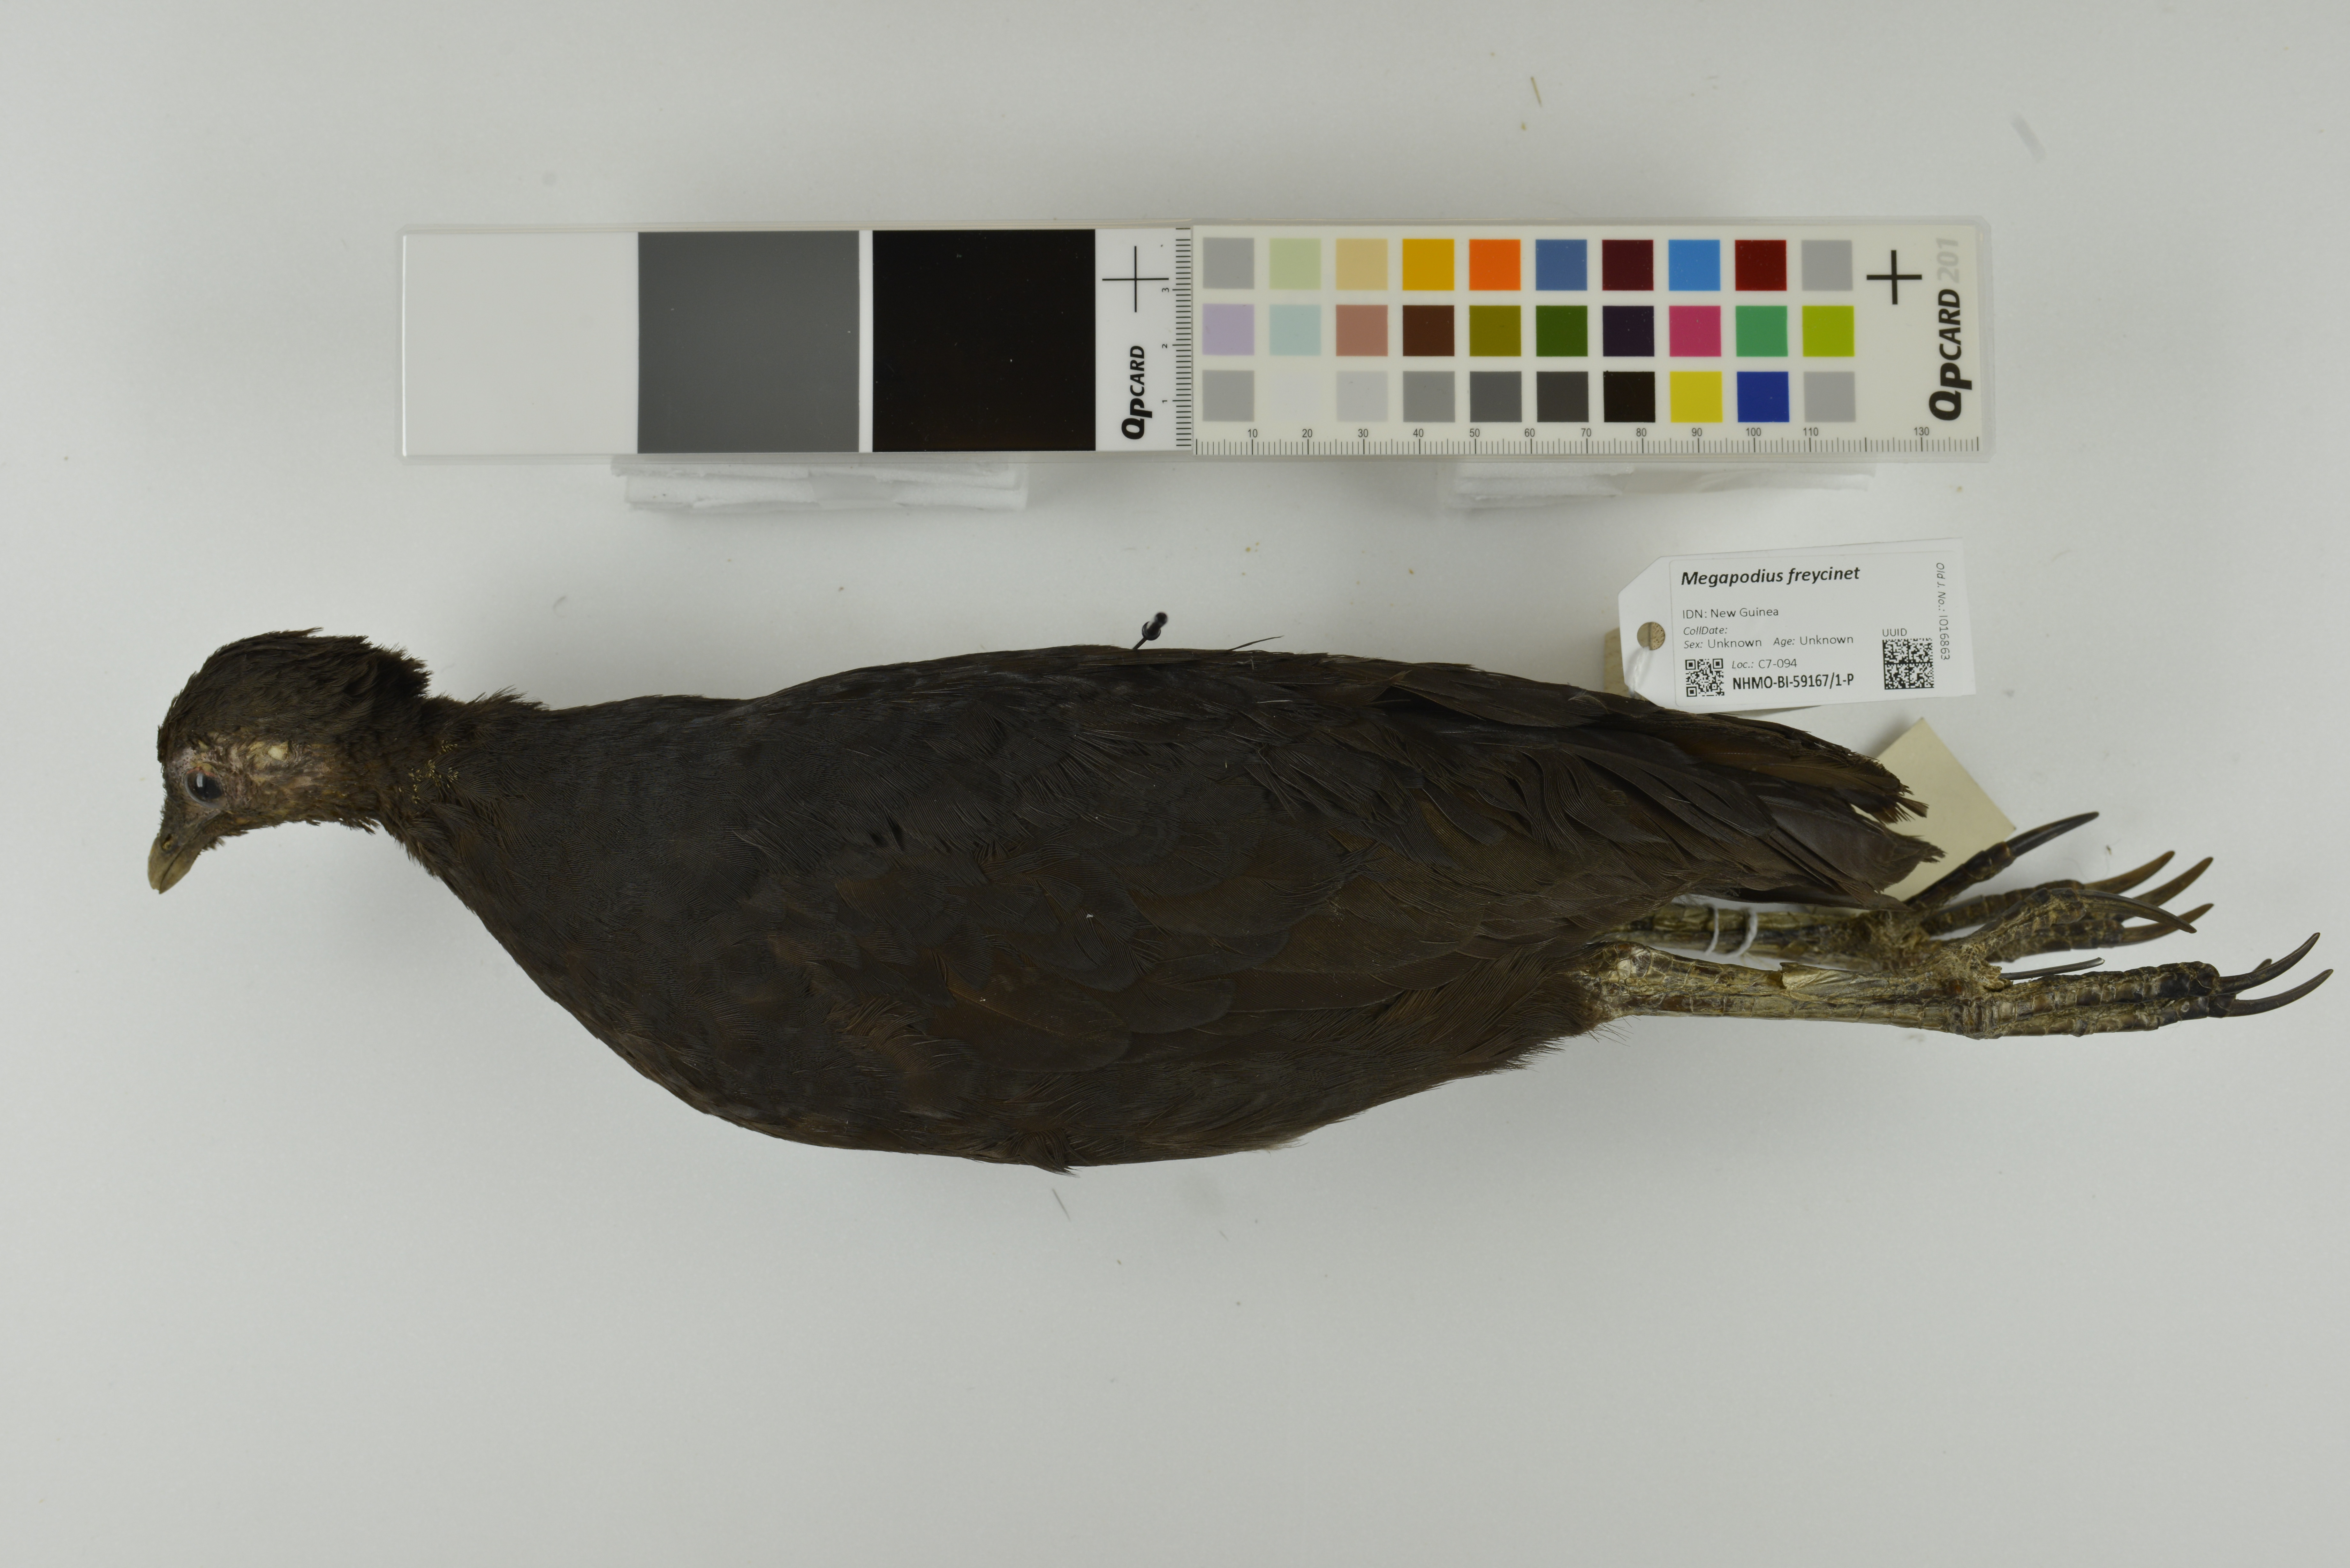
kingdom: Animalia
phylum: Chordata
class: Aves
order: Galliformes
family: Megapodiidae
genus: Megapodius
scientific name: Megapodius freycinet
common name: Dusky megapode
